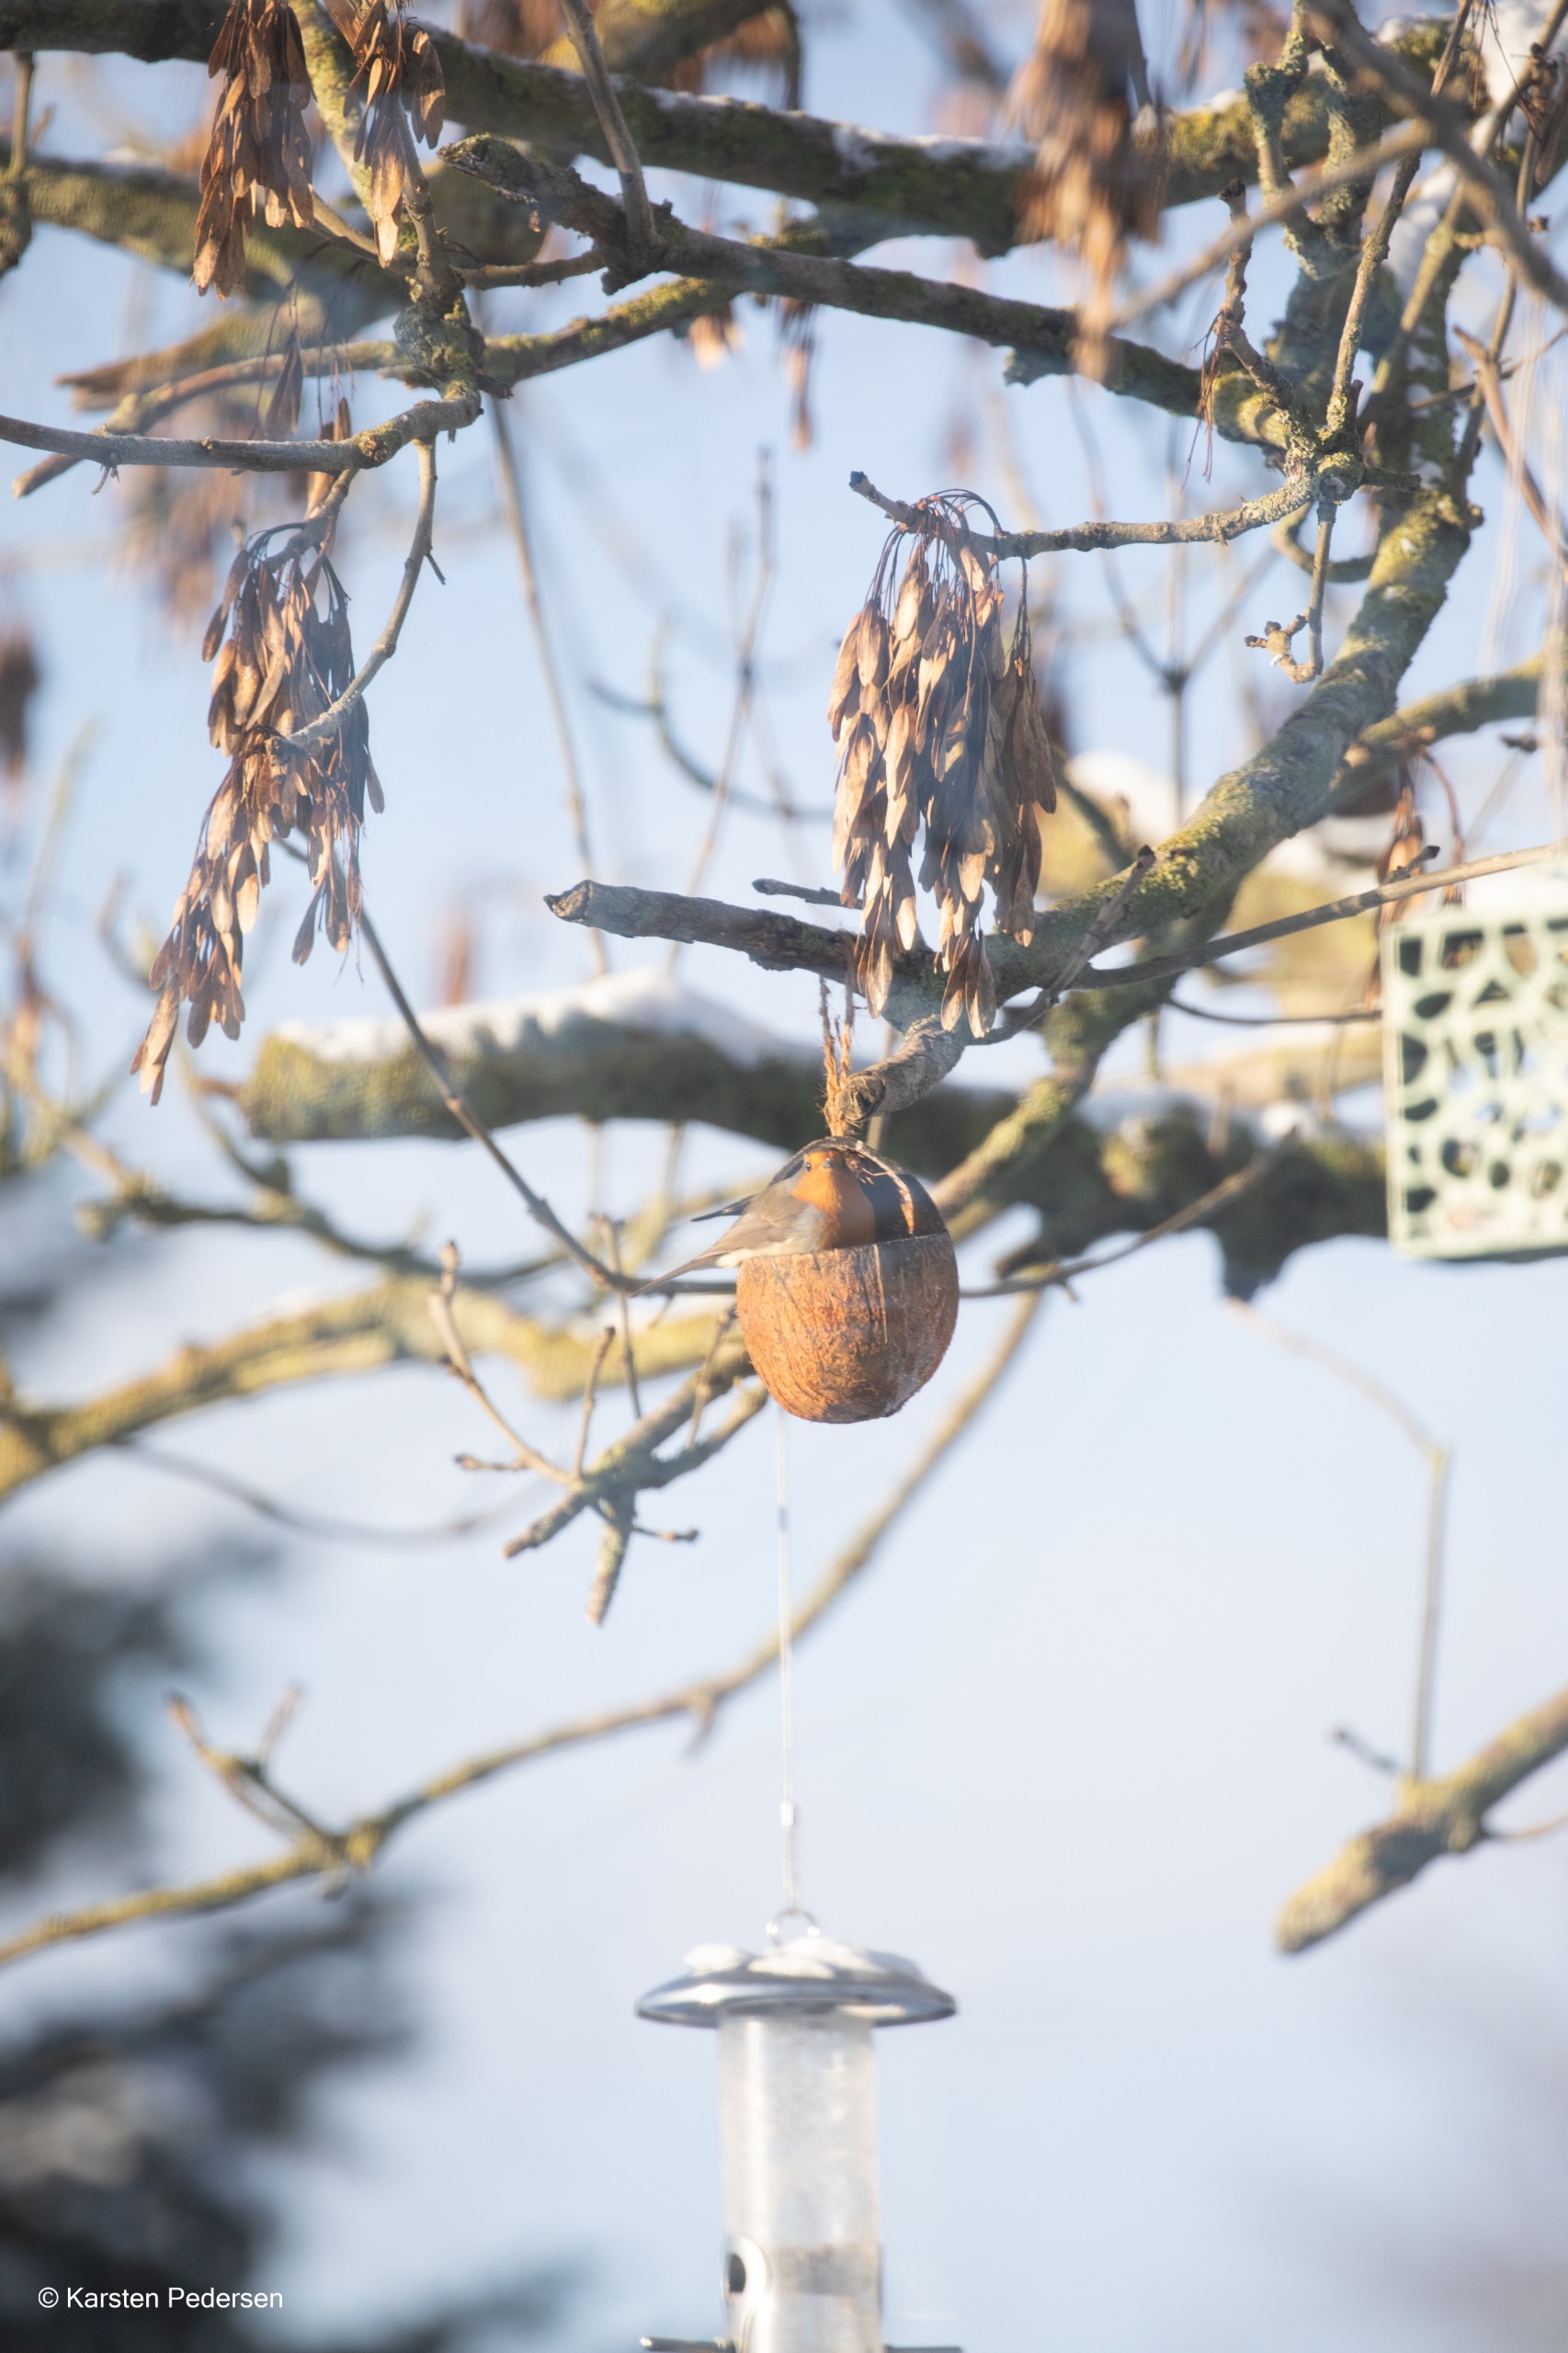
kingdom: Animalia
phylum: Chordata
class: Aves
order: Passeriformes
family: Muscicapidae
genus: Erithacus
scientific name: Erithacus rubecula
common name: Rødhals/rødkælk
